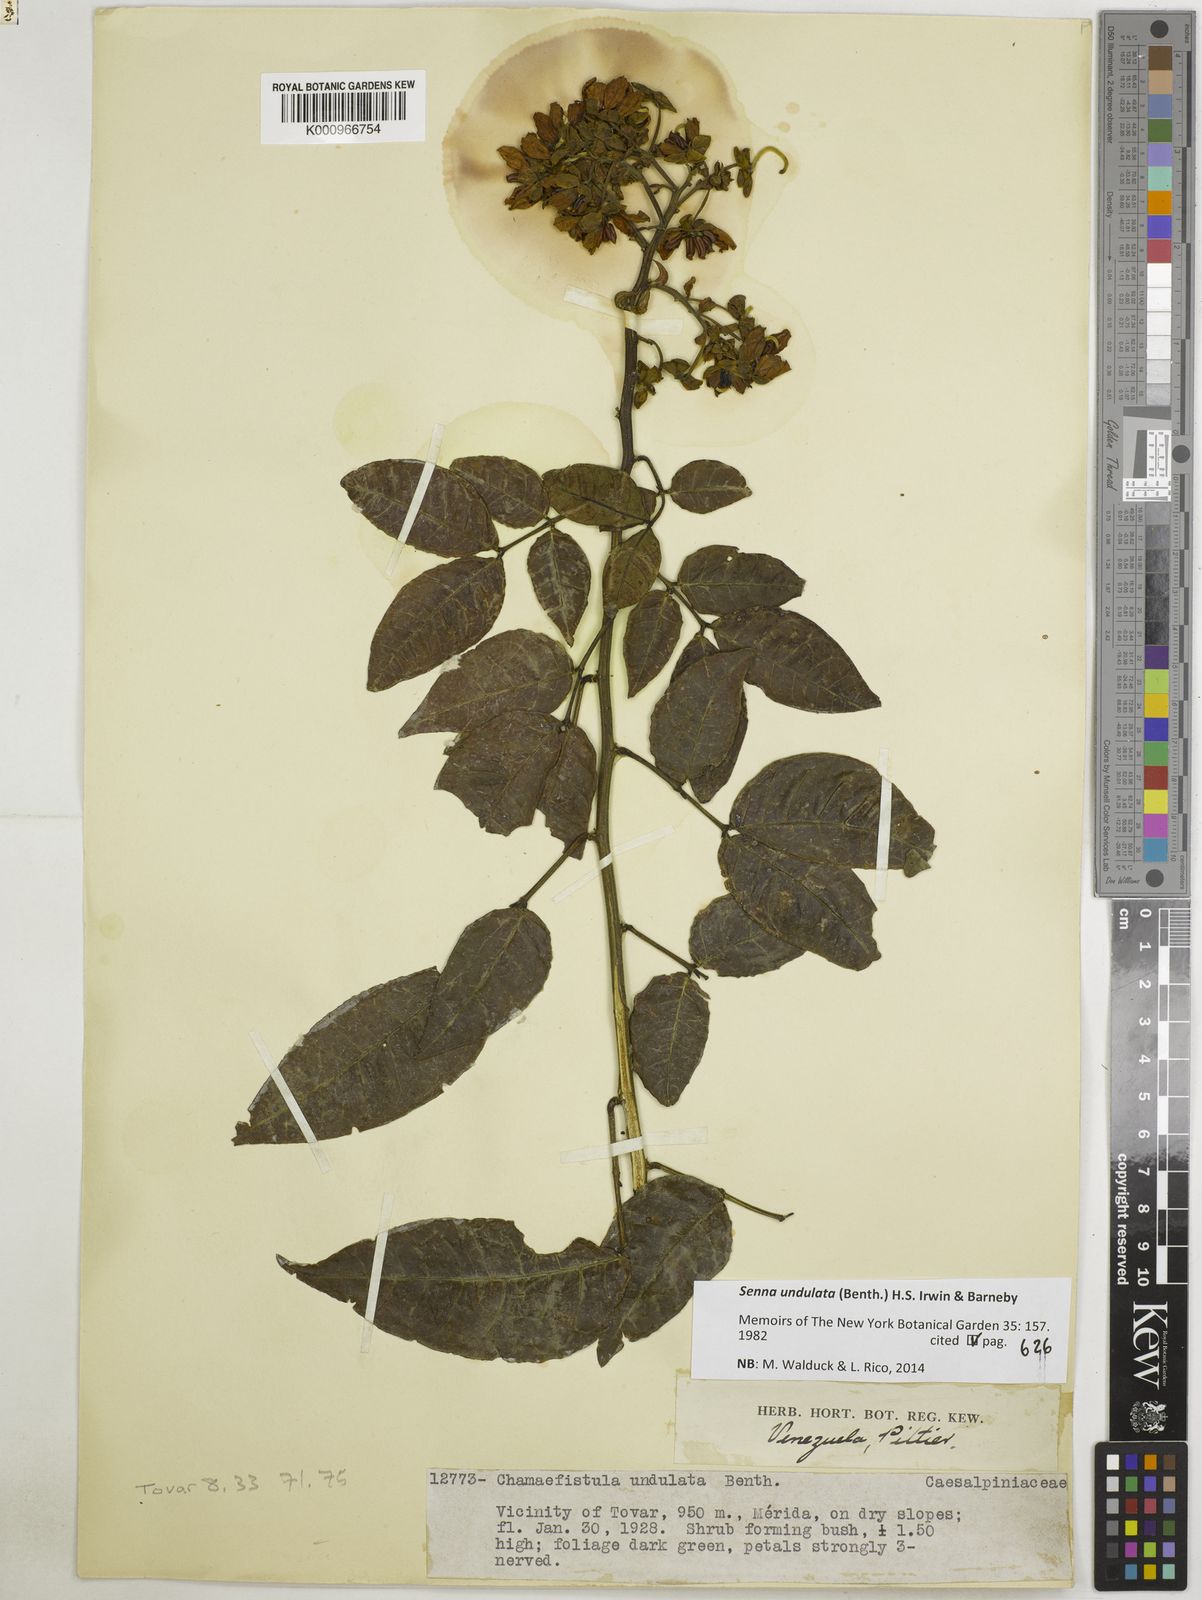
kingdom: Plantae
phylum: Tracheophyta
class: Magnoliopsida
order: Fabales
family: Fabaceae
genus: Senna
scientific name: Senna undulata
